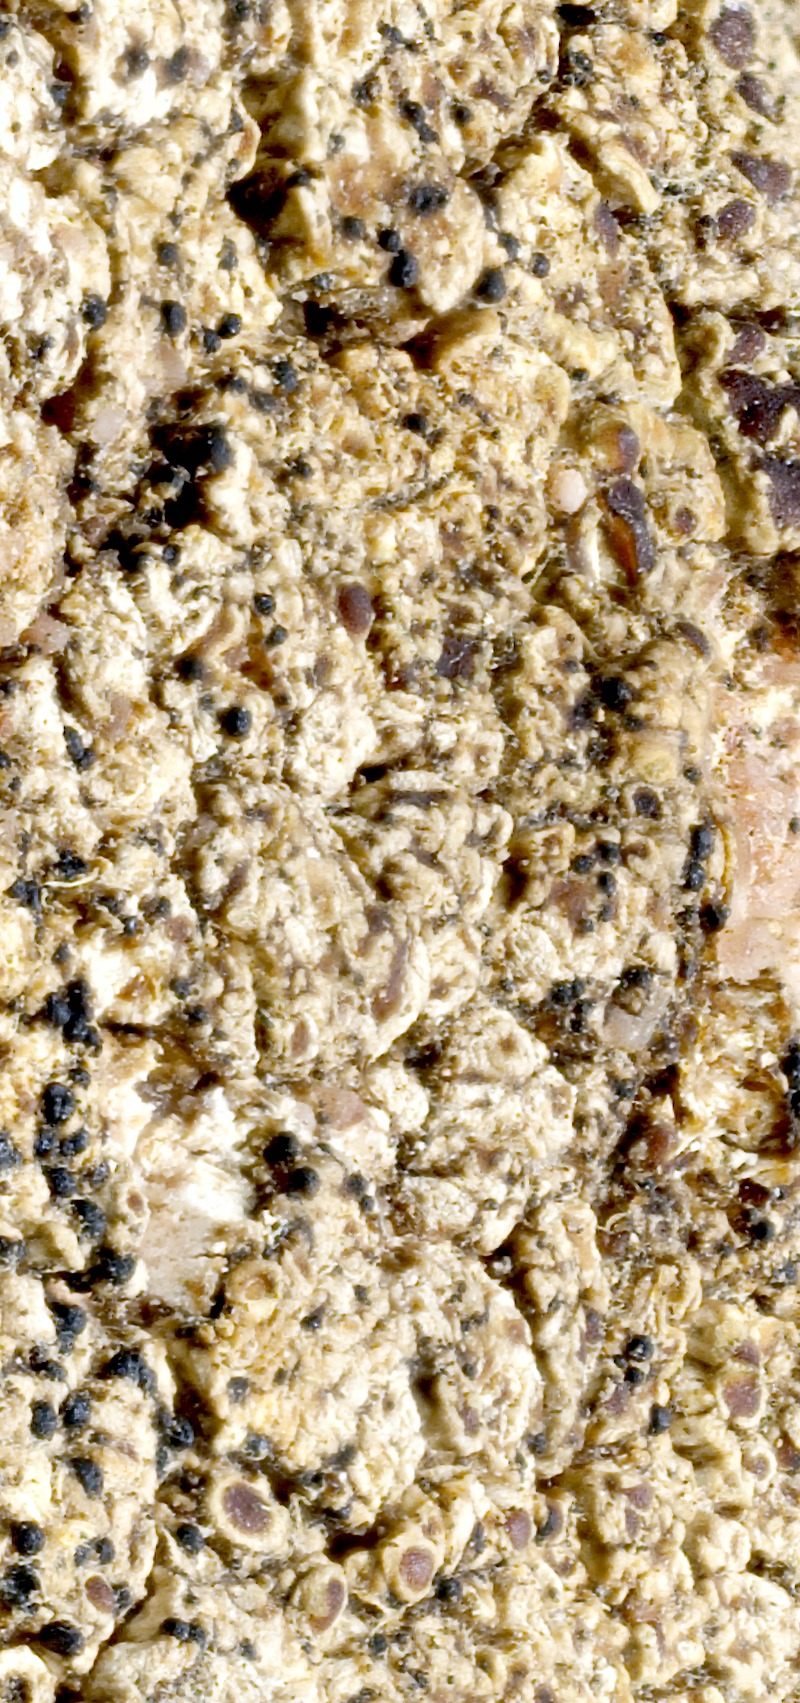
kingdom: Fungi
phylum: Ascomycota
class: Lecanoromycetes
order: Lecanorales
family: Lecanoraceae
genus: Lecanora
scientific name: Lecanora campestris
